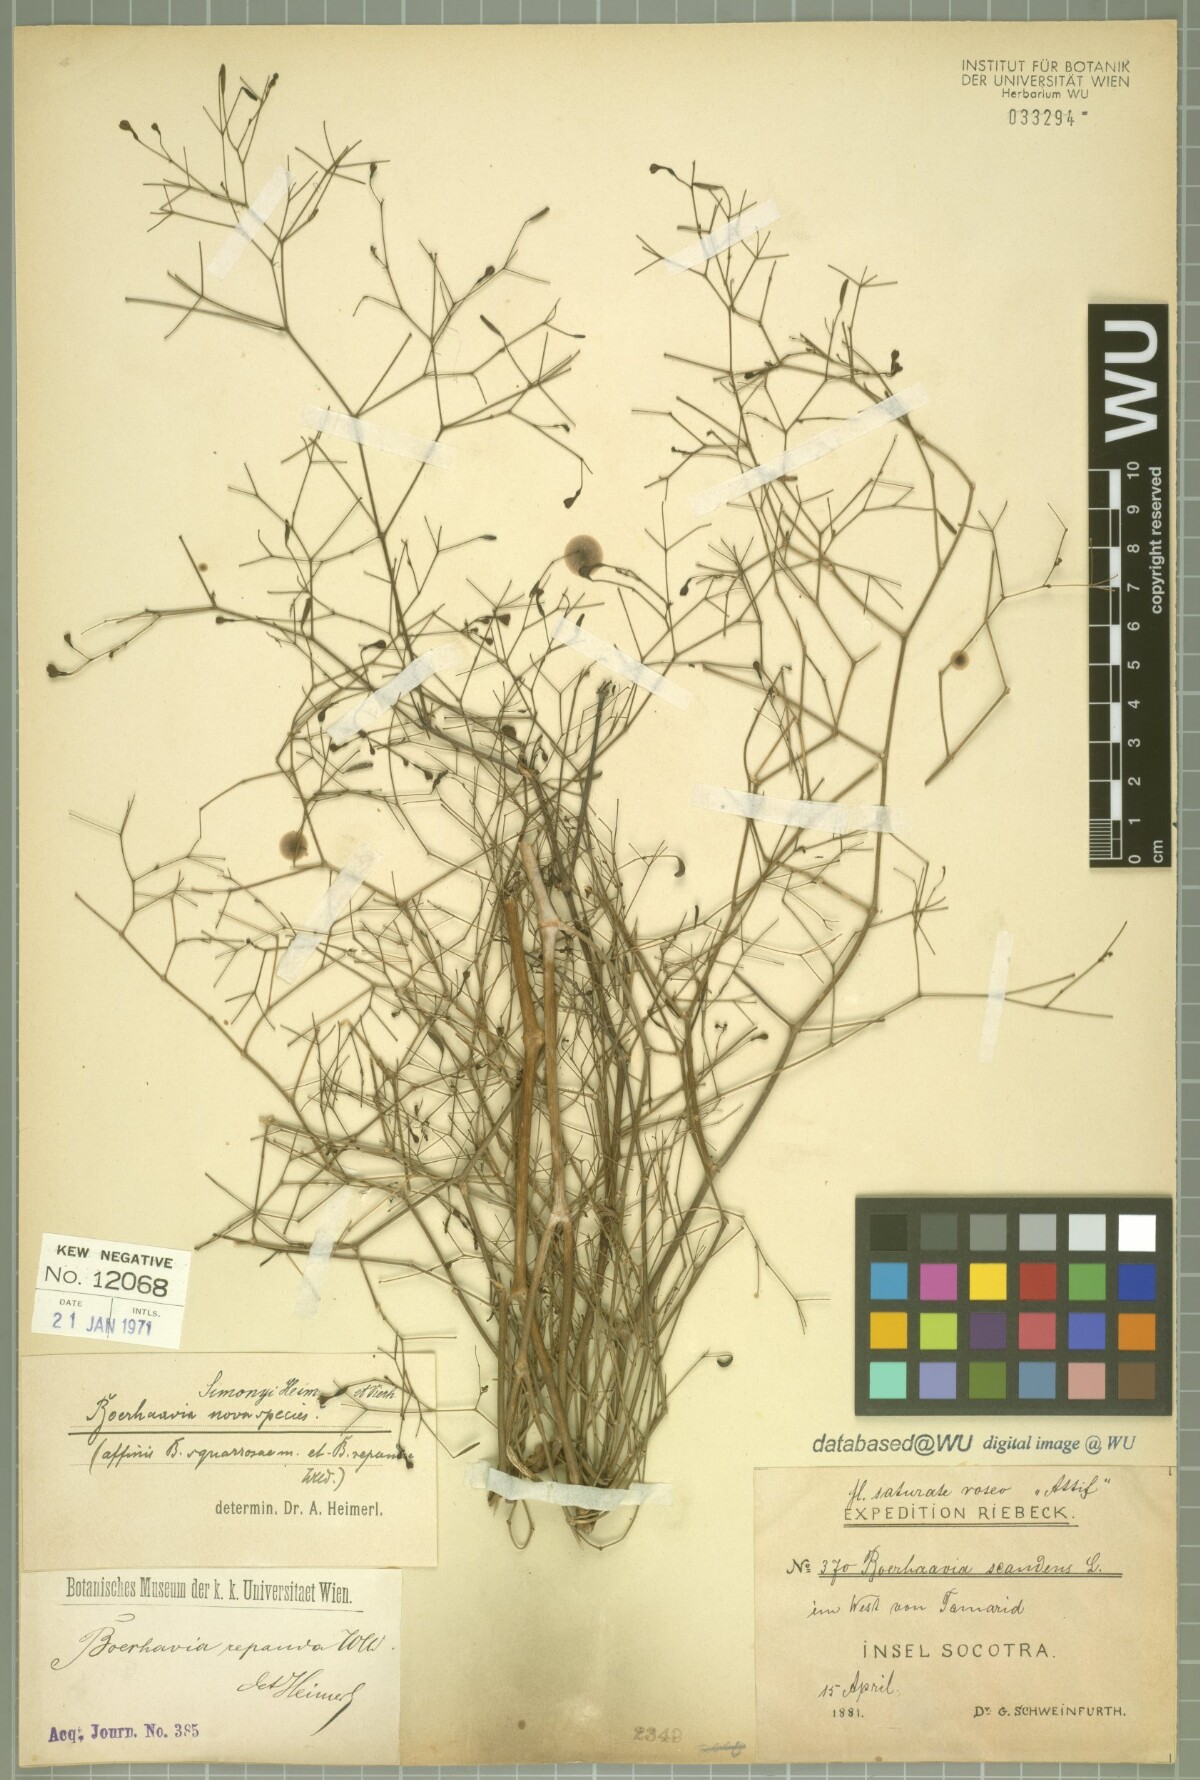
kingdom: Plantae
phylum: Tracheophyta
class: Magnoliopsida
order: Caryophyllales
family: Nyctaginaceae
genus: Commicarpus
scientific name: Commicarpus simonyi
